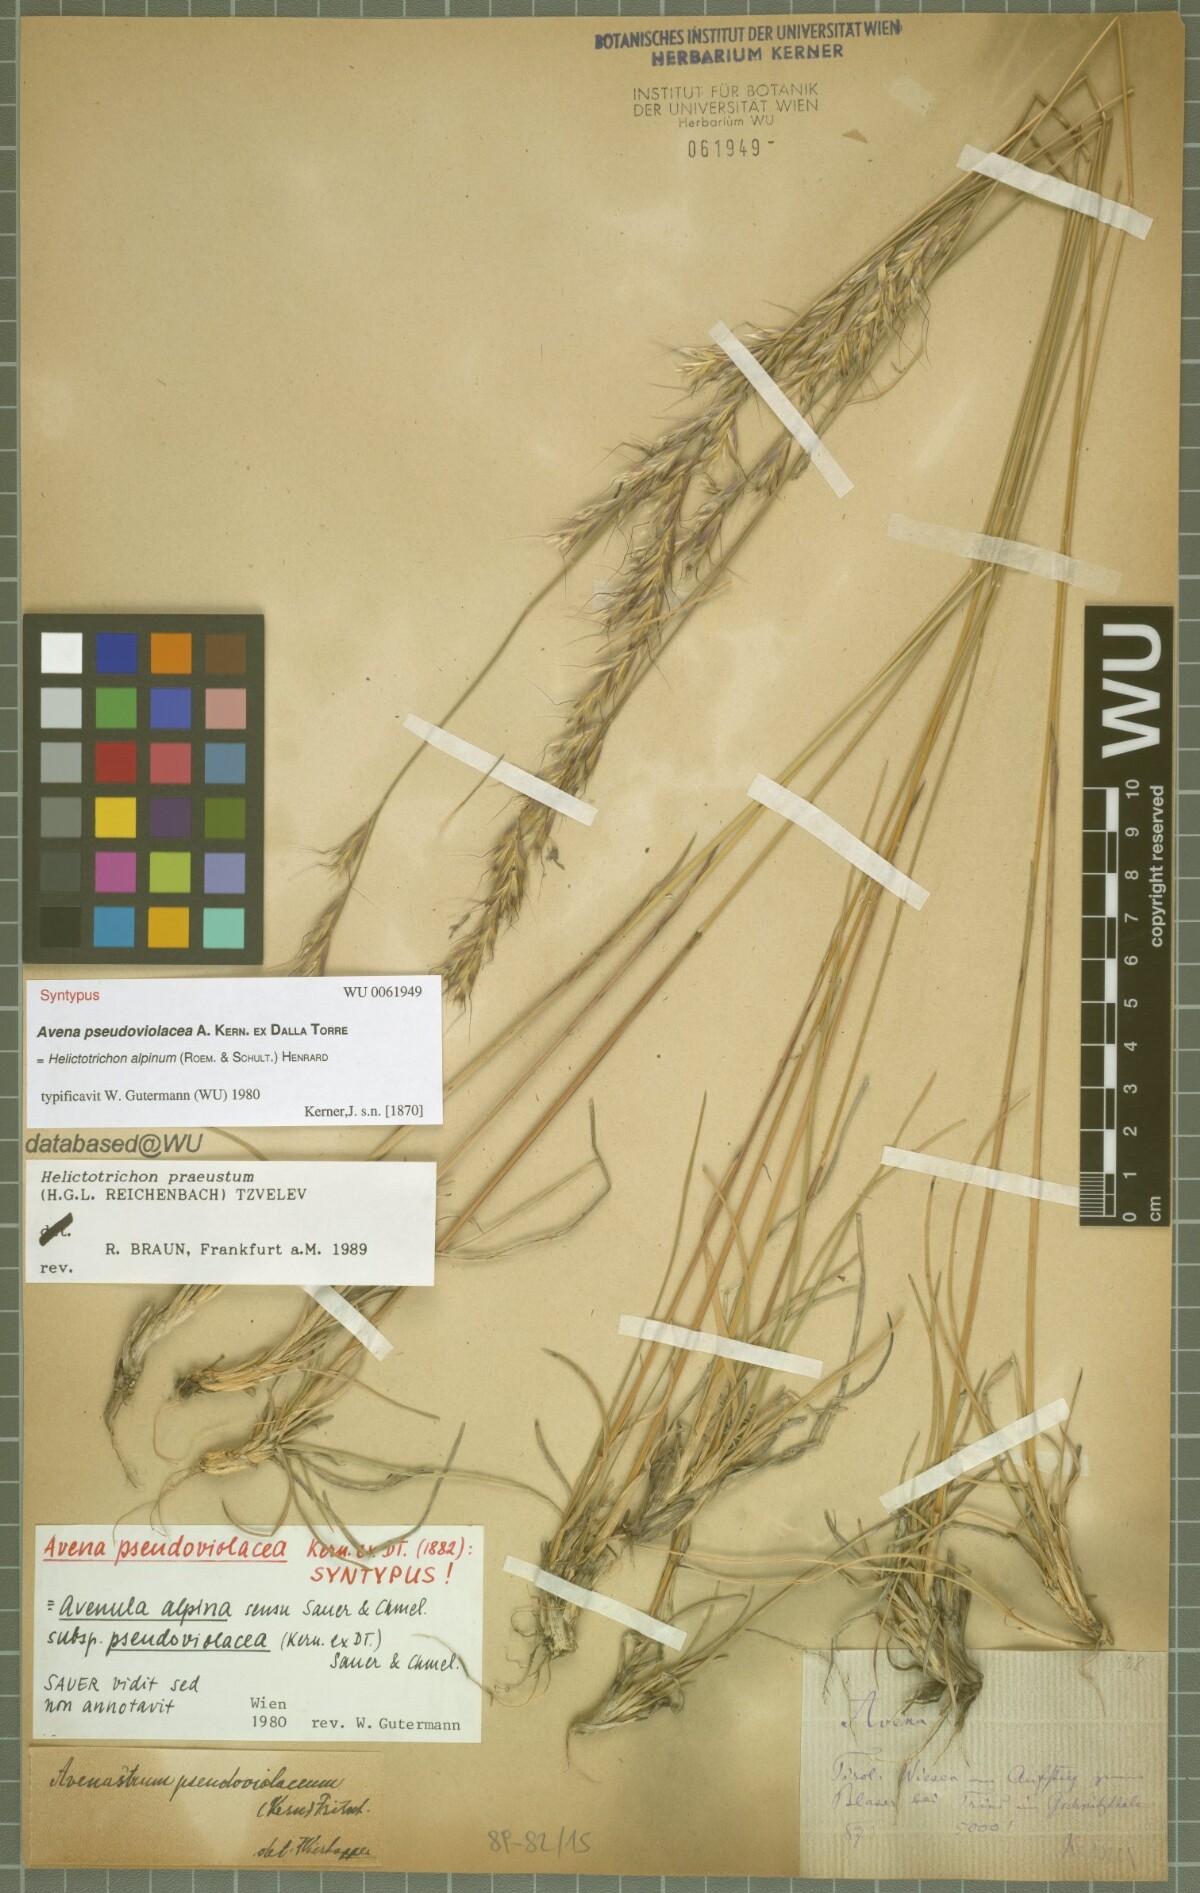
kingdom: Plantae
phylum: Tracheophyta
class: Liliopsida
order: Poales
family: Poaceae
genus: Helictochloa
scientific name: Helictochloa praeusta
